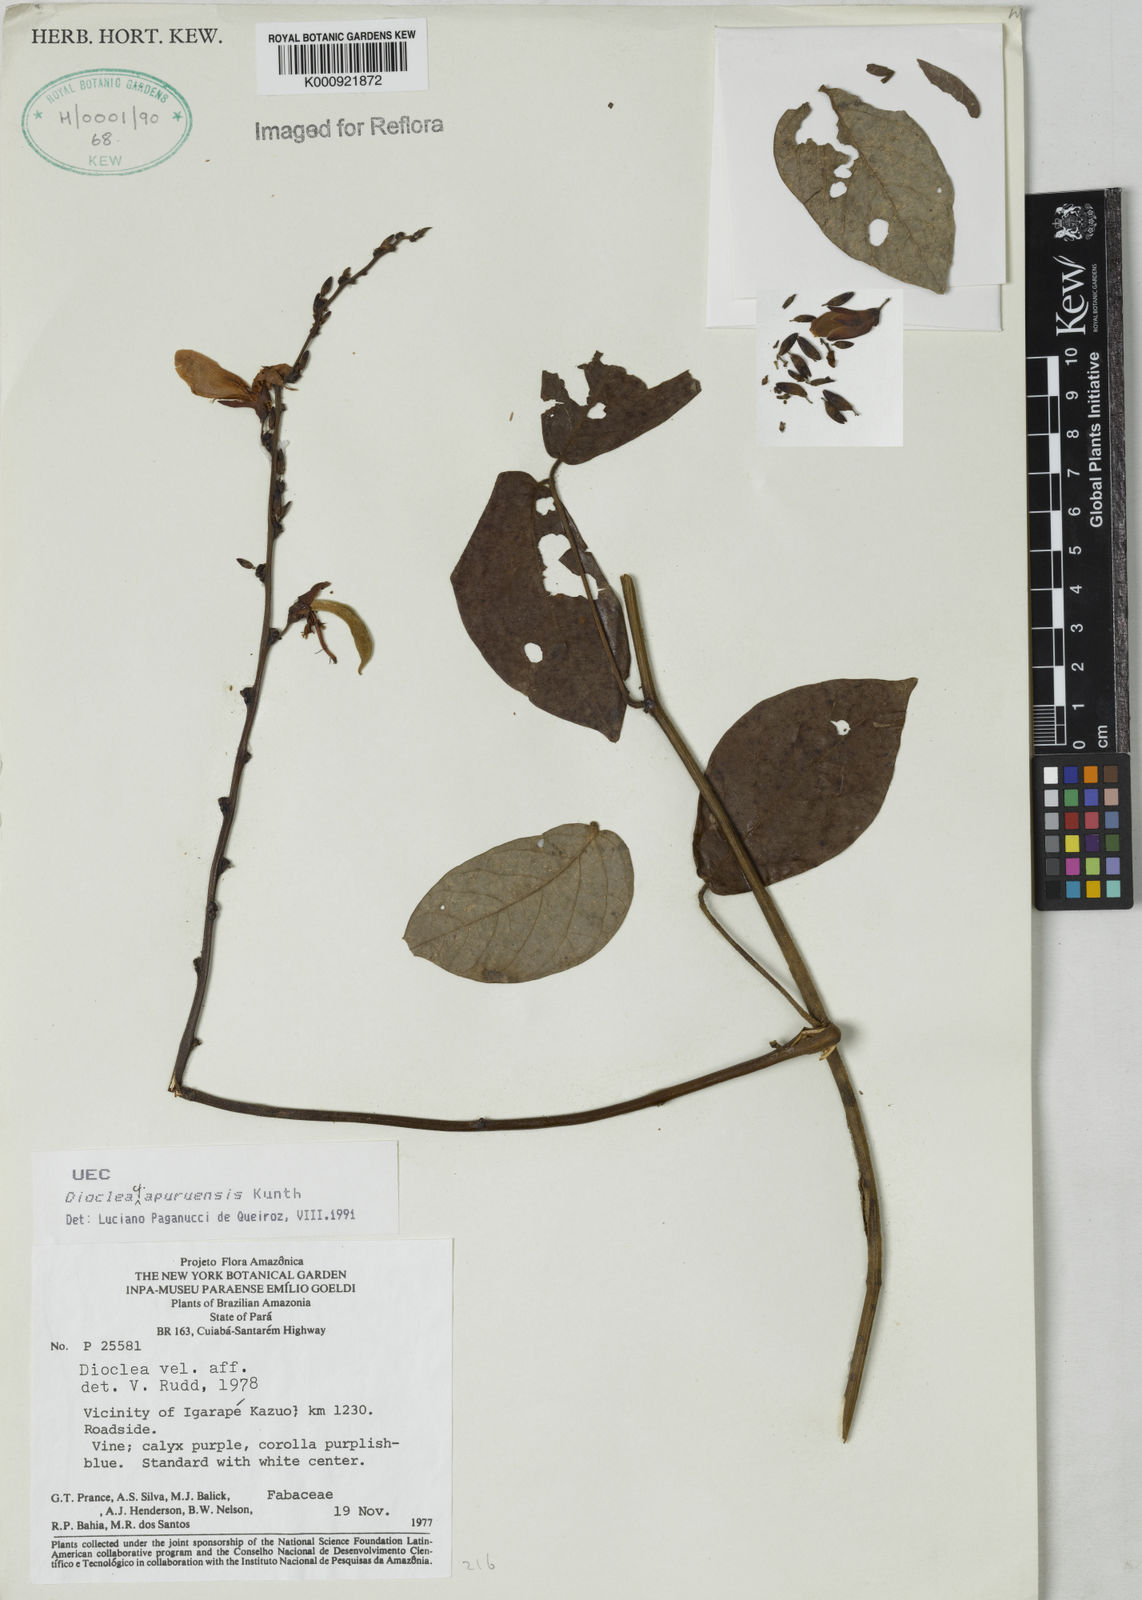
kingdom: Plantae
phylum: Tracheophyta
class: Magnoliopsida
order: Fabales
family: Fabaceae
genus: Dioclea
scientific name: Dioclea
